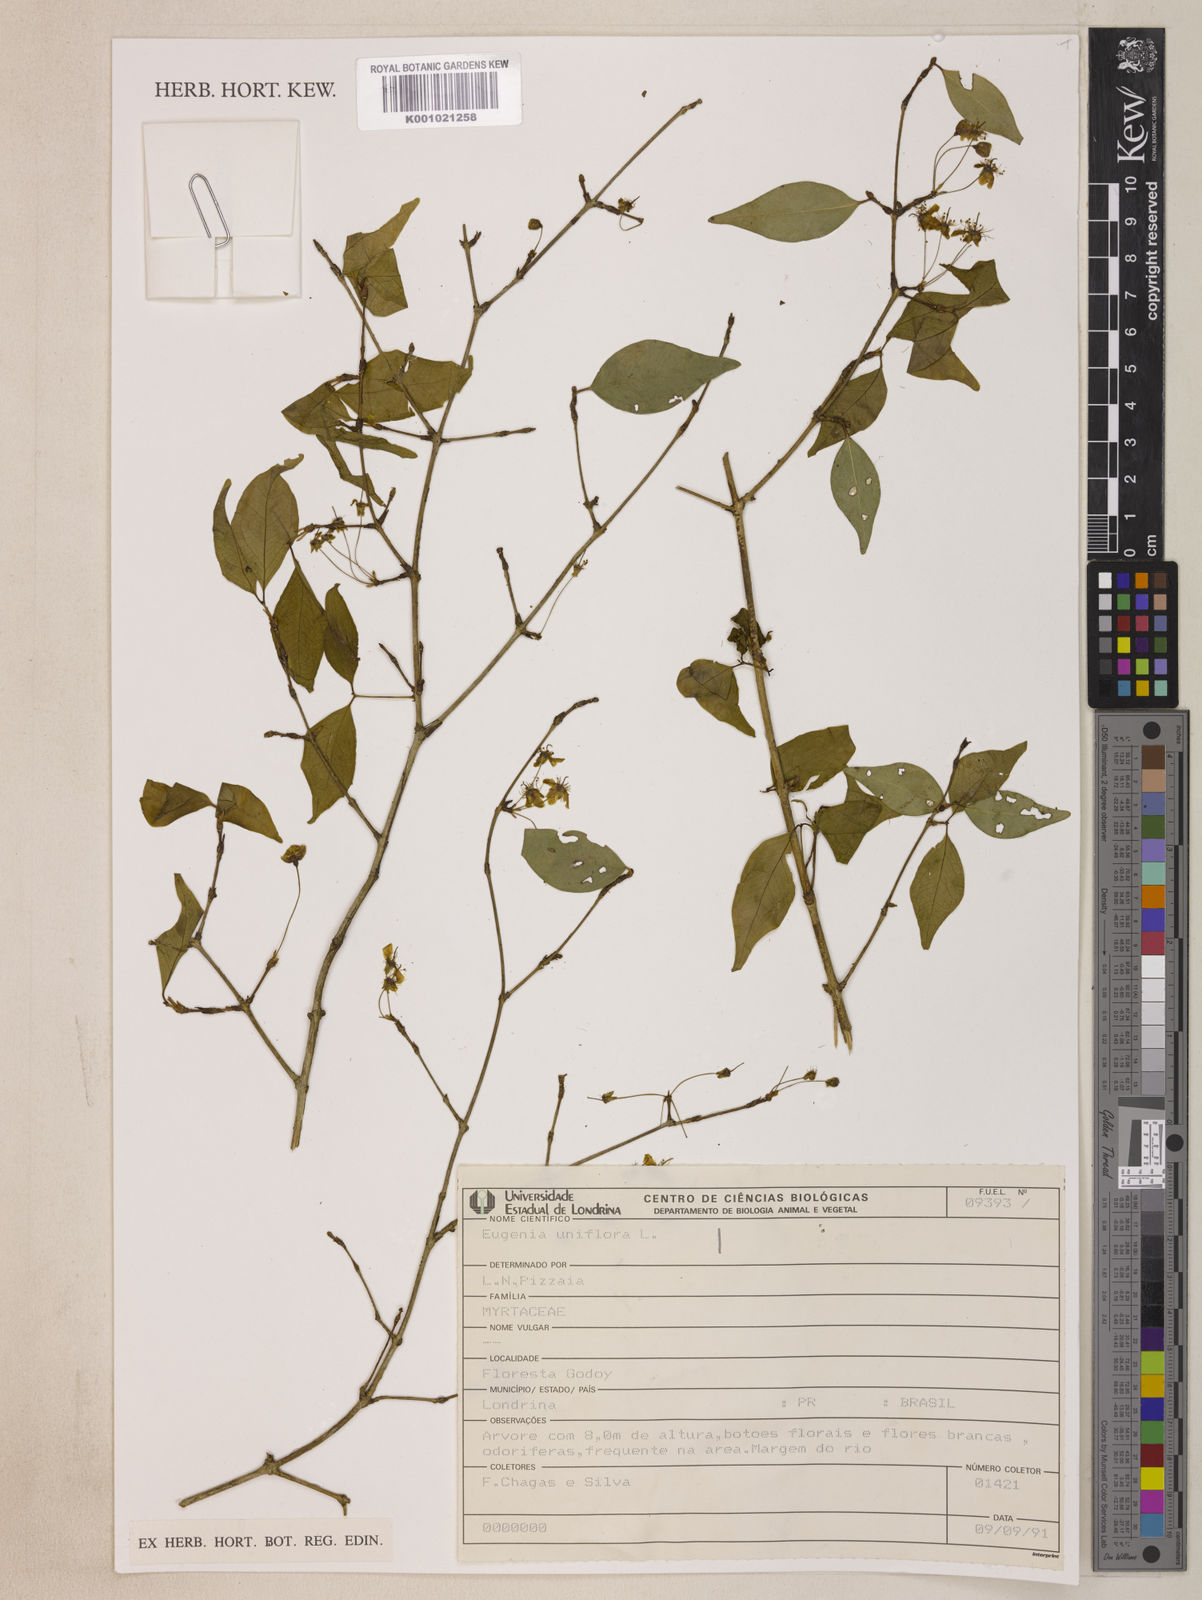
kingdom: Plantae
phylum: Tracheophyta
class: Magnoliopsida
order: Myrtales
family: Myrtaceae
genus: Eugenia
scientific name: Eugenia uniflora
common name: Surinam cherry
